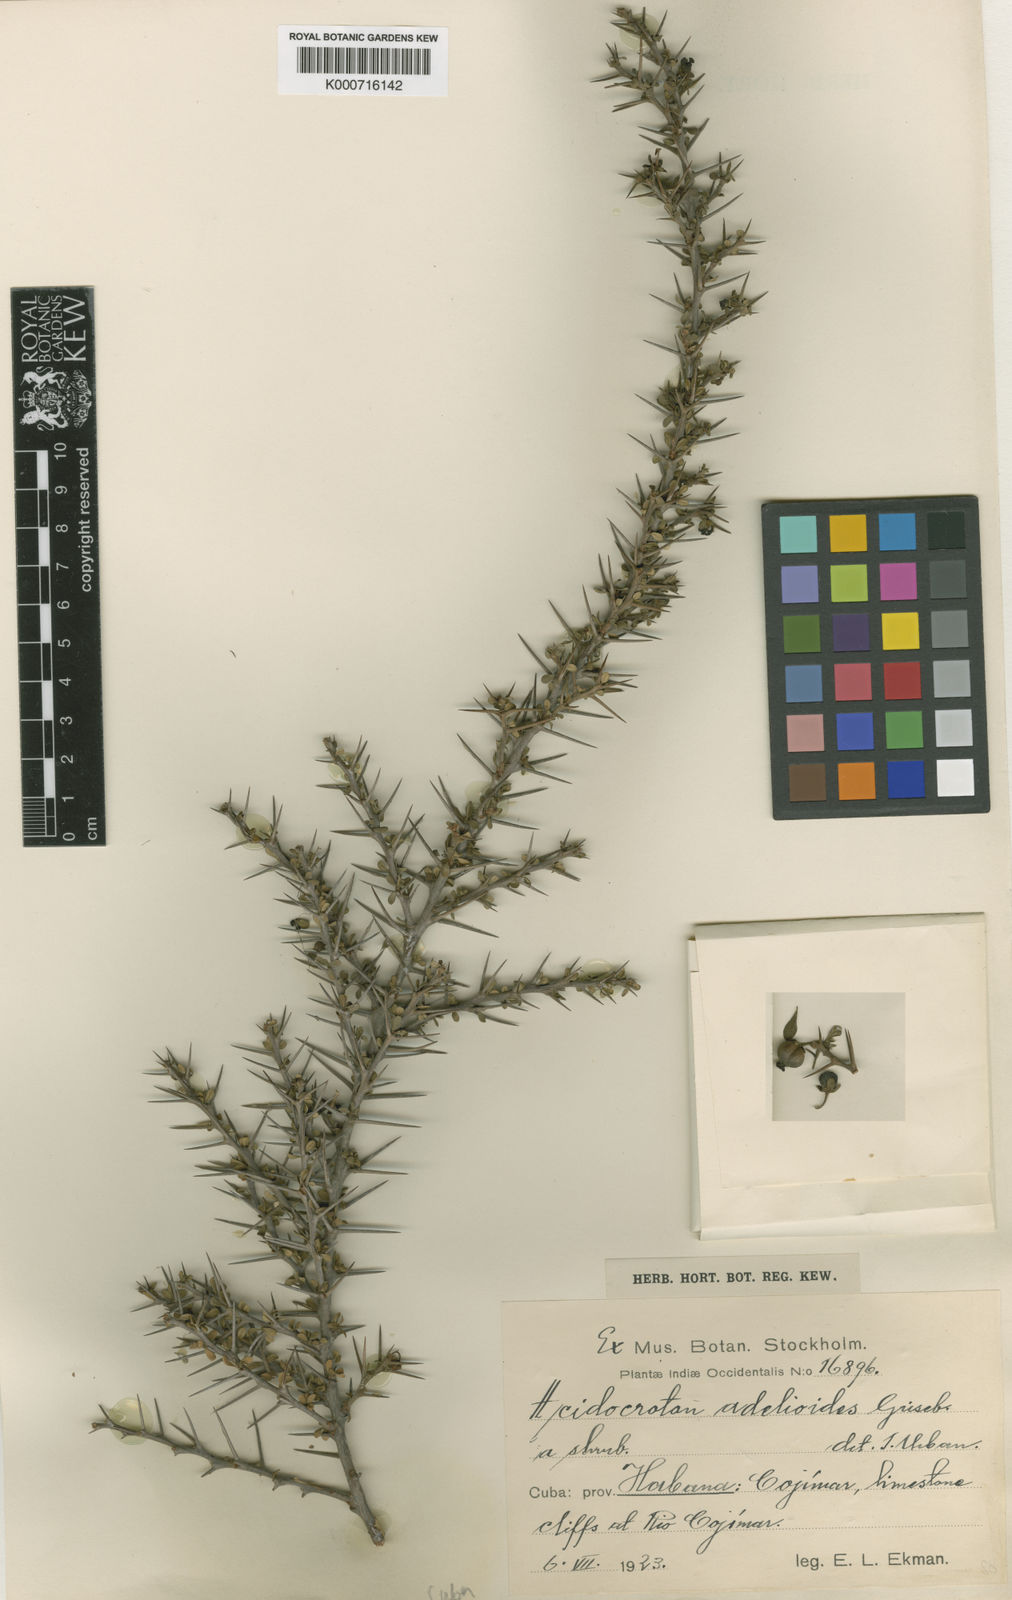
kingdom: Plantae
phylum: Tracheophyta
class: Magnoliopsida
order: Malpighiales
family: Euphorbiaceae
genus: Acidocroton
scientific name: Acidocroton adelioides
